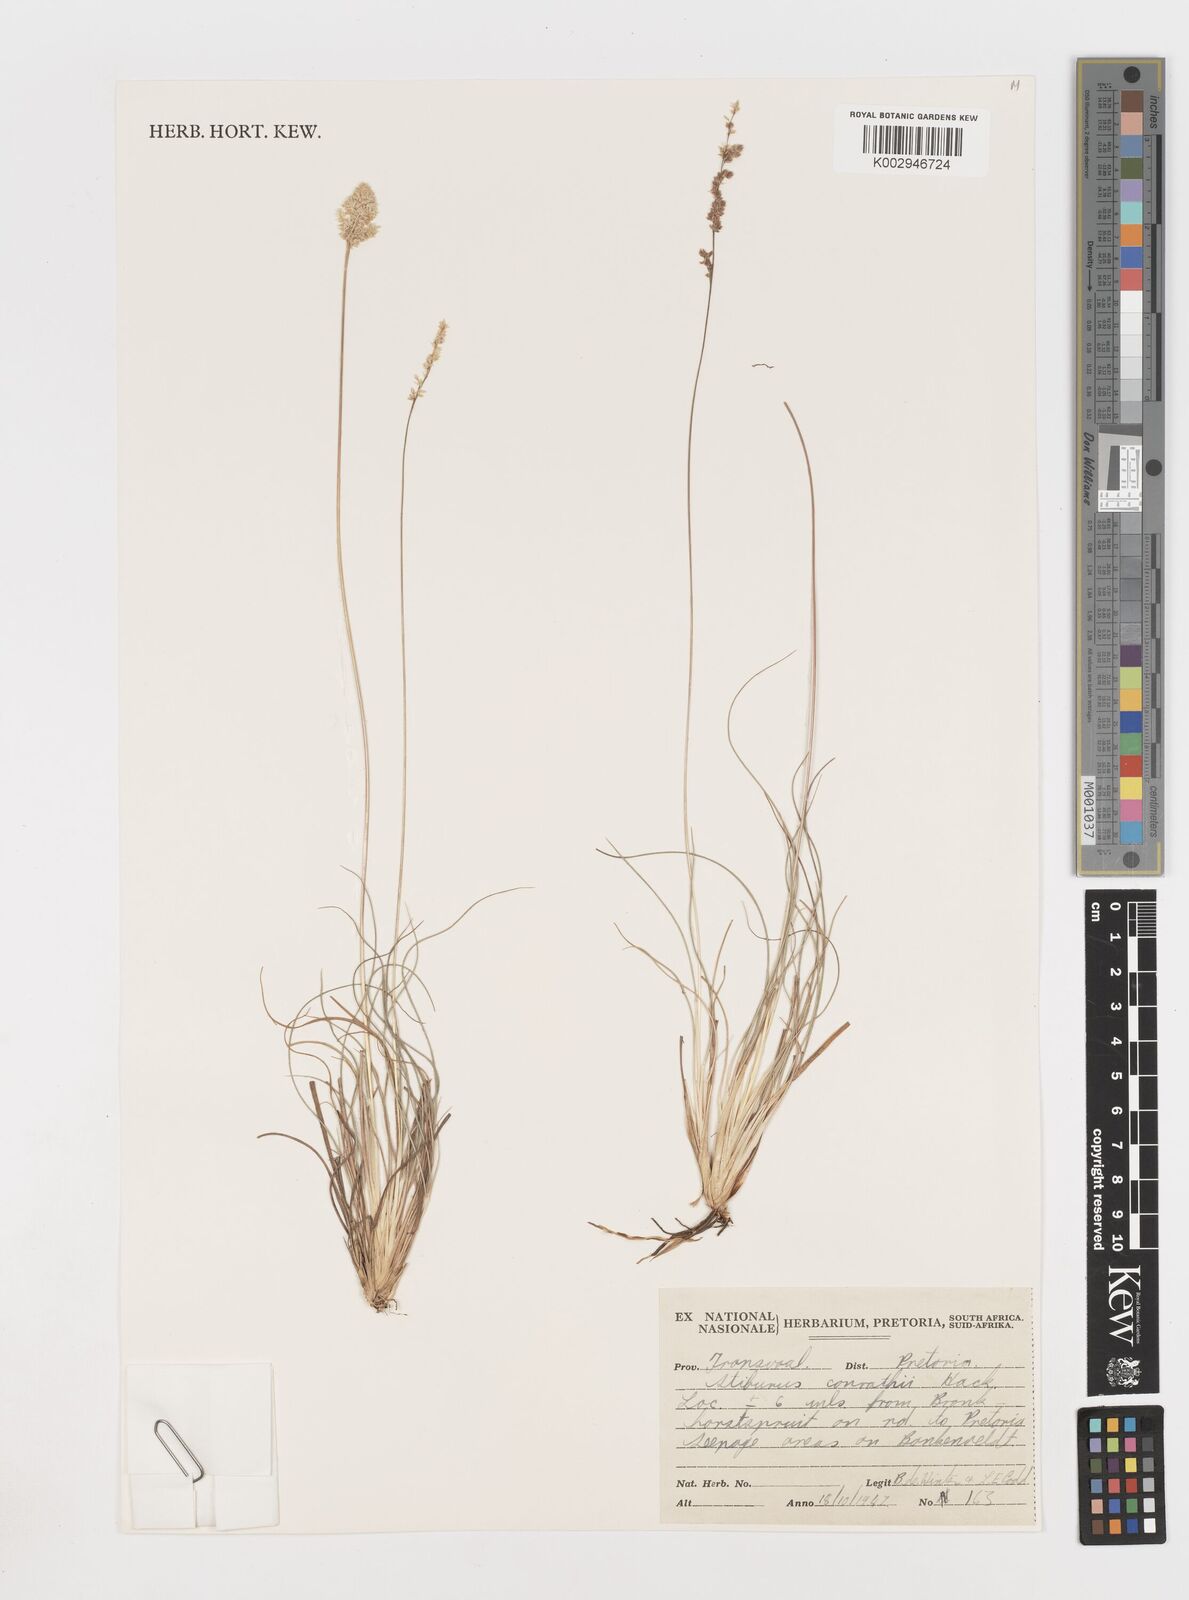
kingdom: Plantae
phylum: Tracheophyta
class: Liliopsida
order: Poales
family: Poaceae
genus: Stiburus
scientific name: Stiburus conrathii
